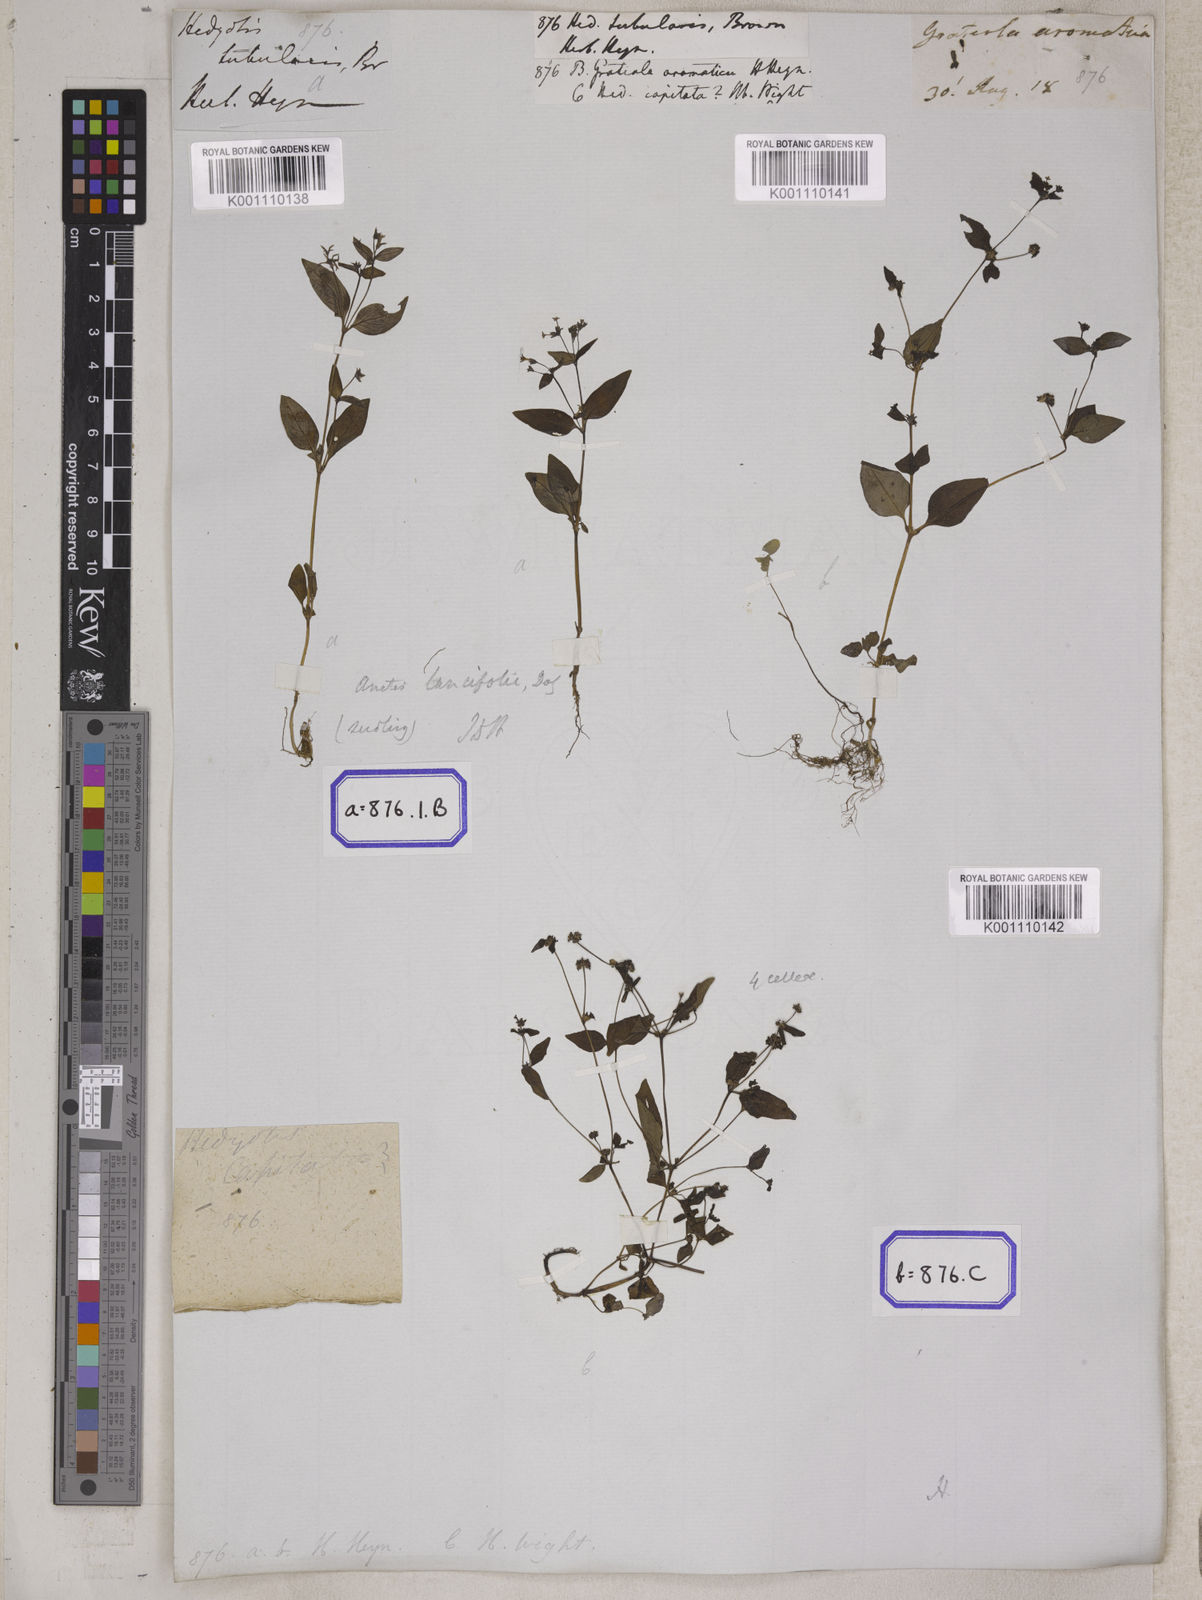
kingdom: Plantae
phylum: Tracheophyta
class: Magnoliopsida
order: Gentianales
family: Rubiaceae
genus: Hedyotis
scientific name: Hedyotis
